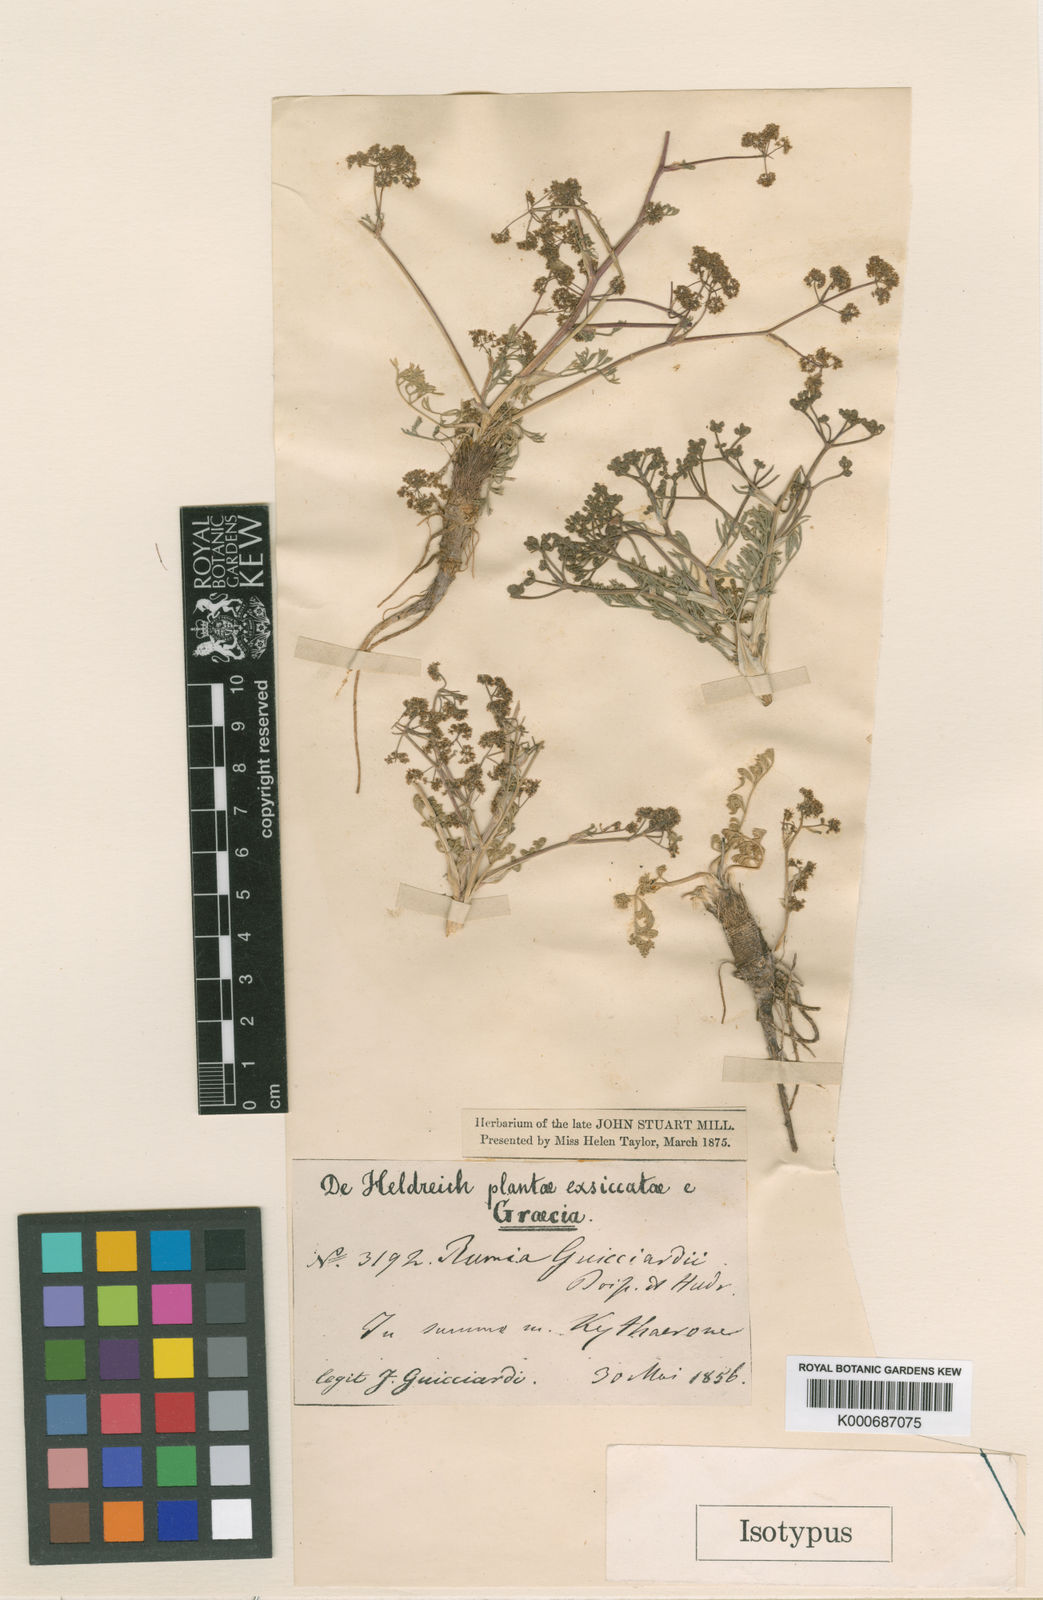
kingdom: Plantae
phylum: Tracheophyta
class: Magnoliopsida
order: Apiales
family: Apiaceae
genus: Trinia
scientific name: Trinia
